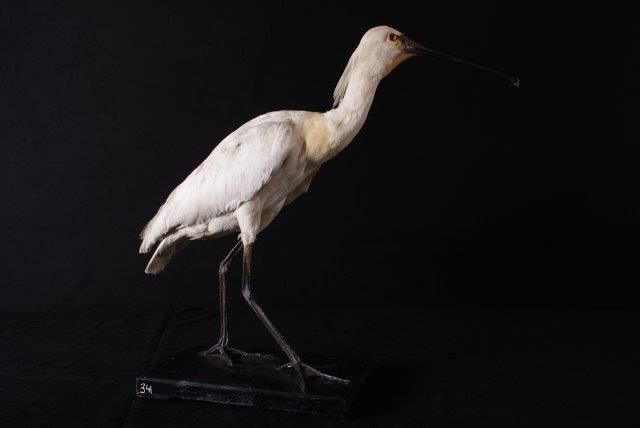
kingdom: Animalia
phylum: Chordata
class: Aves
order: Pelecaniformes
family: Threskiornithidae
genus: Platalea
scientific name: Platalea leucorodia
